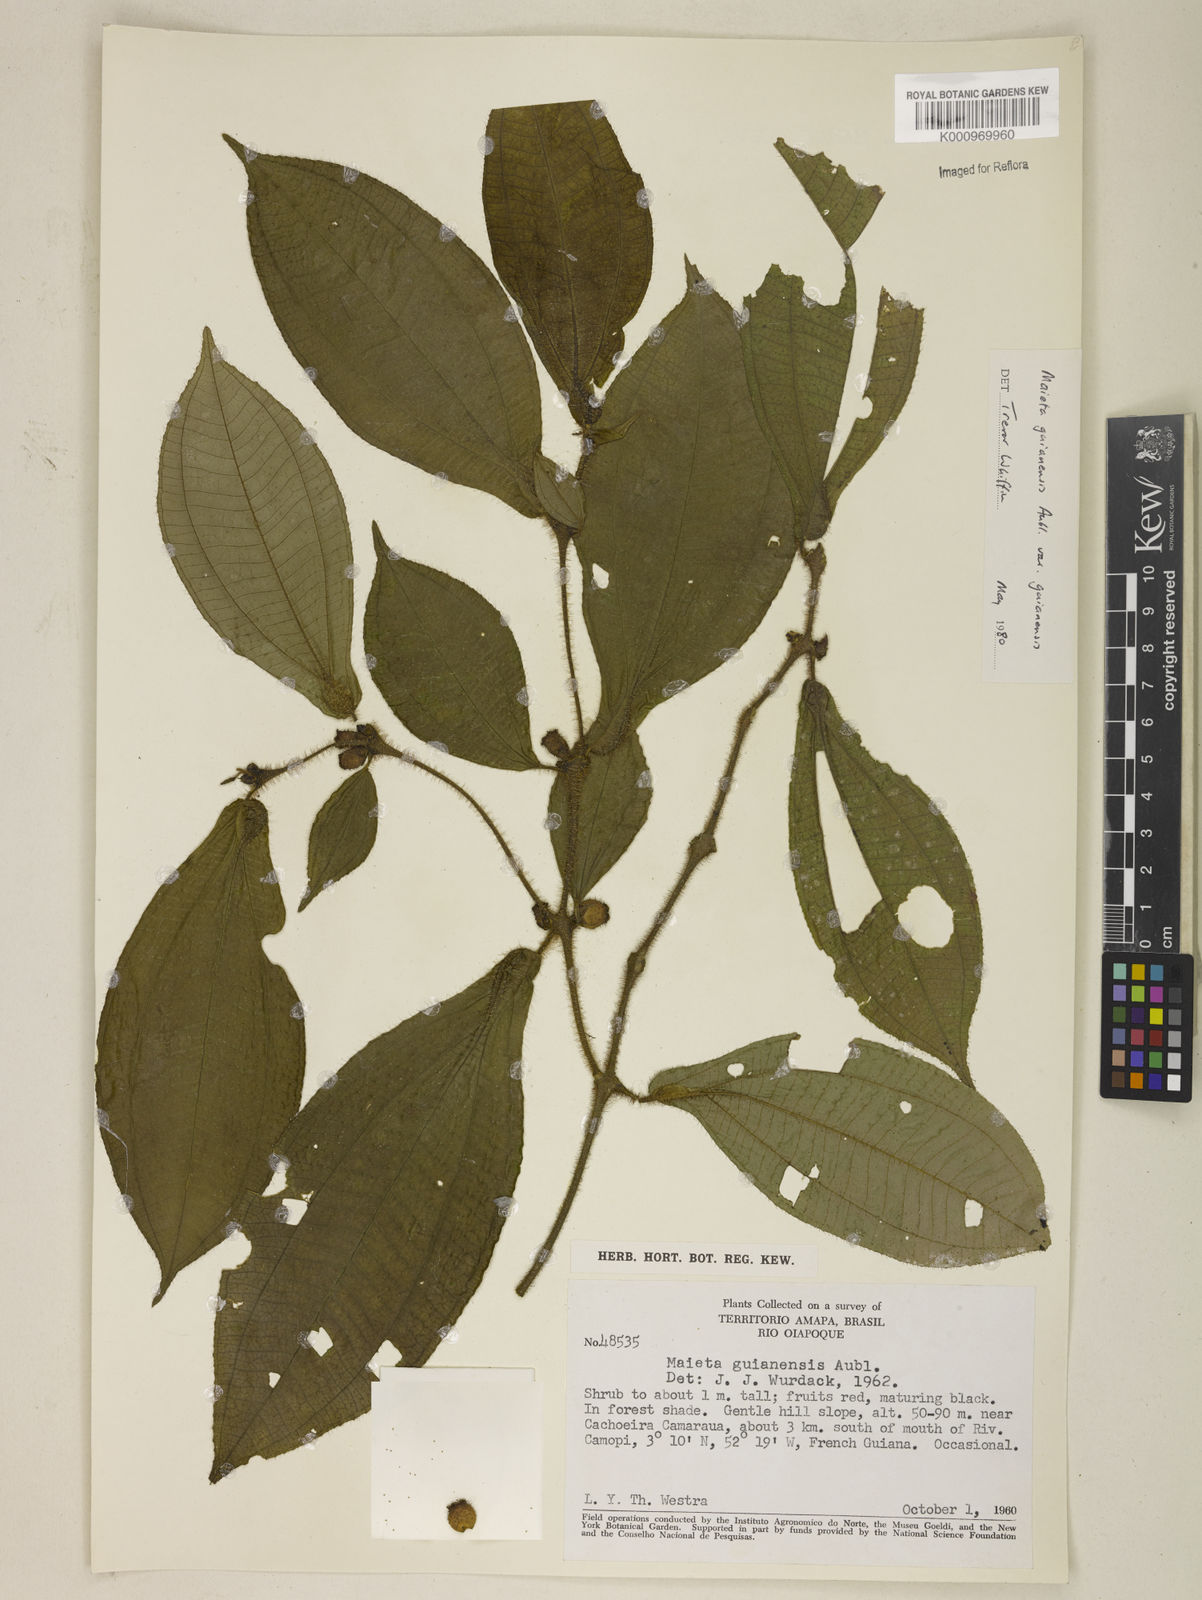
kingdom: Plantae
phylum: Tracheophyta
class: Magnoliopsida
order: Myrtales
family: Melastomataceae
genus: Miconia
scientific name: Miconia mayeta
